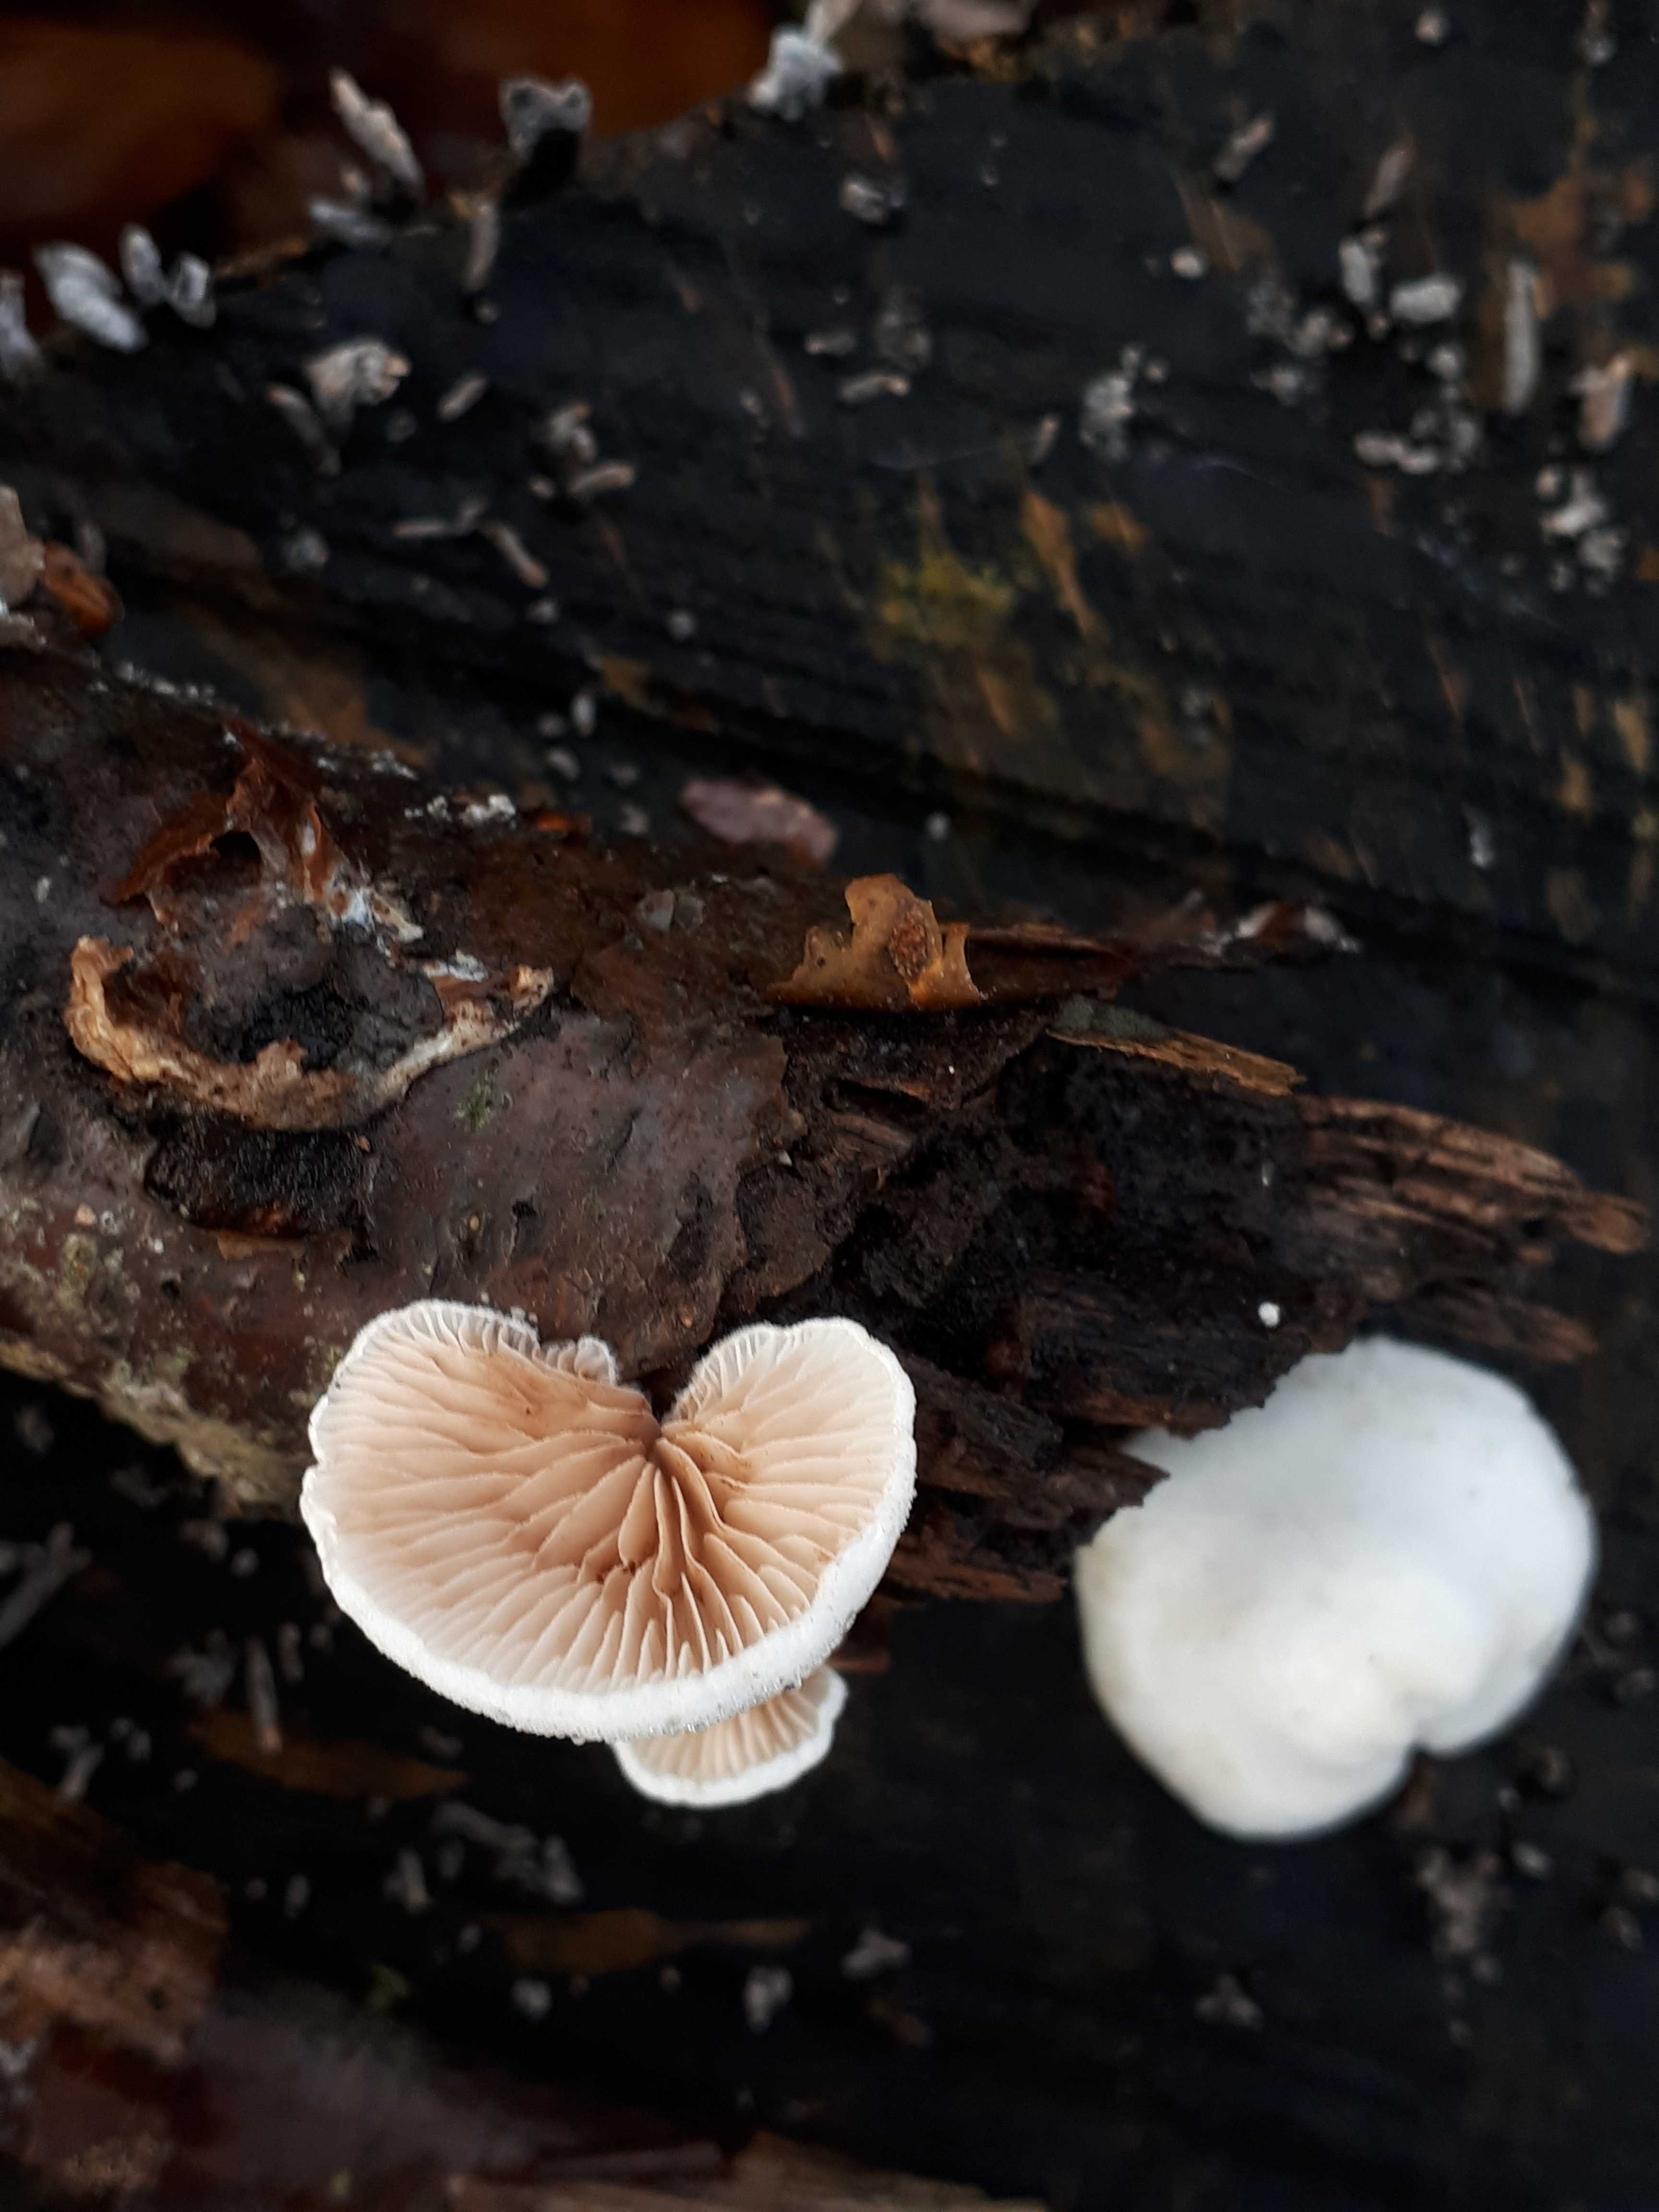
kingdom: Fungi
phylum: Basidiomycota
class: Agaricomycetes
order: Agaricales
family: Crepidotaceae
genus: Crepidotus
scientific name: Crepidotus
